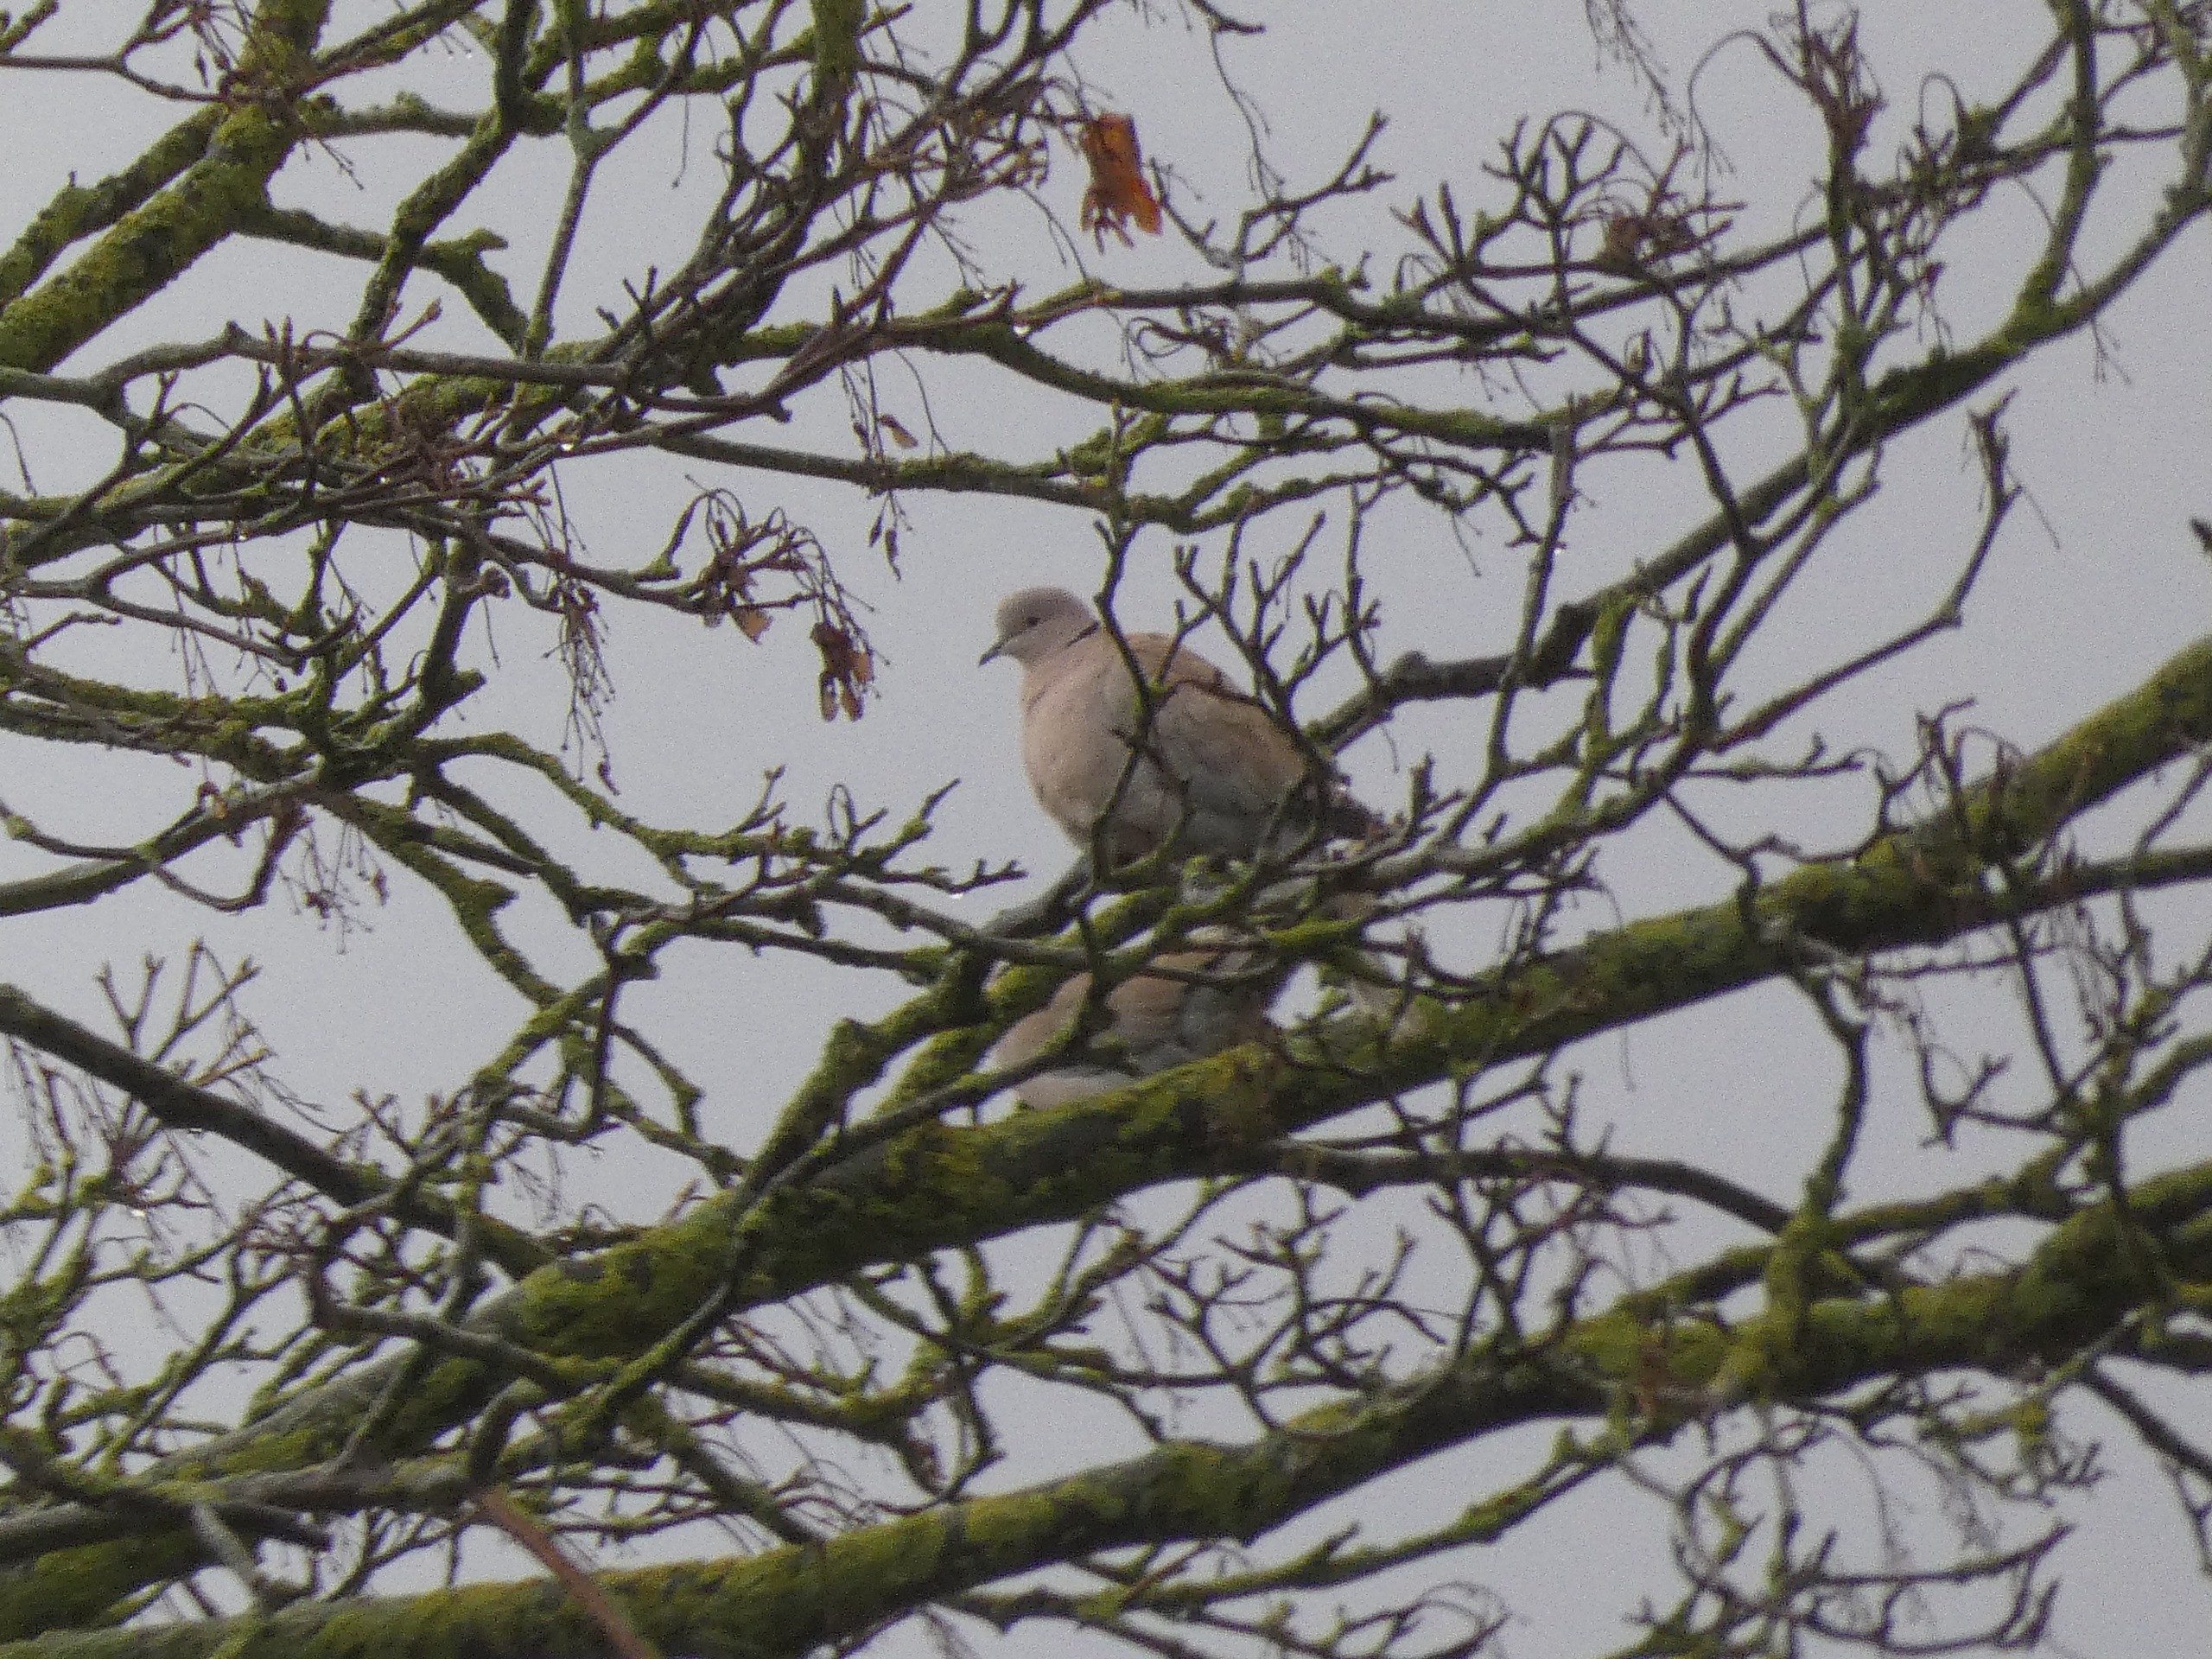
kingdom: Animalia
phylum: Chordata
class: Aves
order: Columbiformes
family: Columbidae
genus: Streptopelia
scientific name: Streptopelia decaocto
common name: Tyrkerdue
